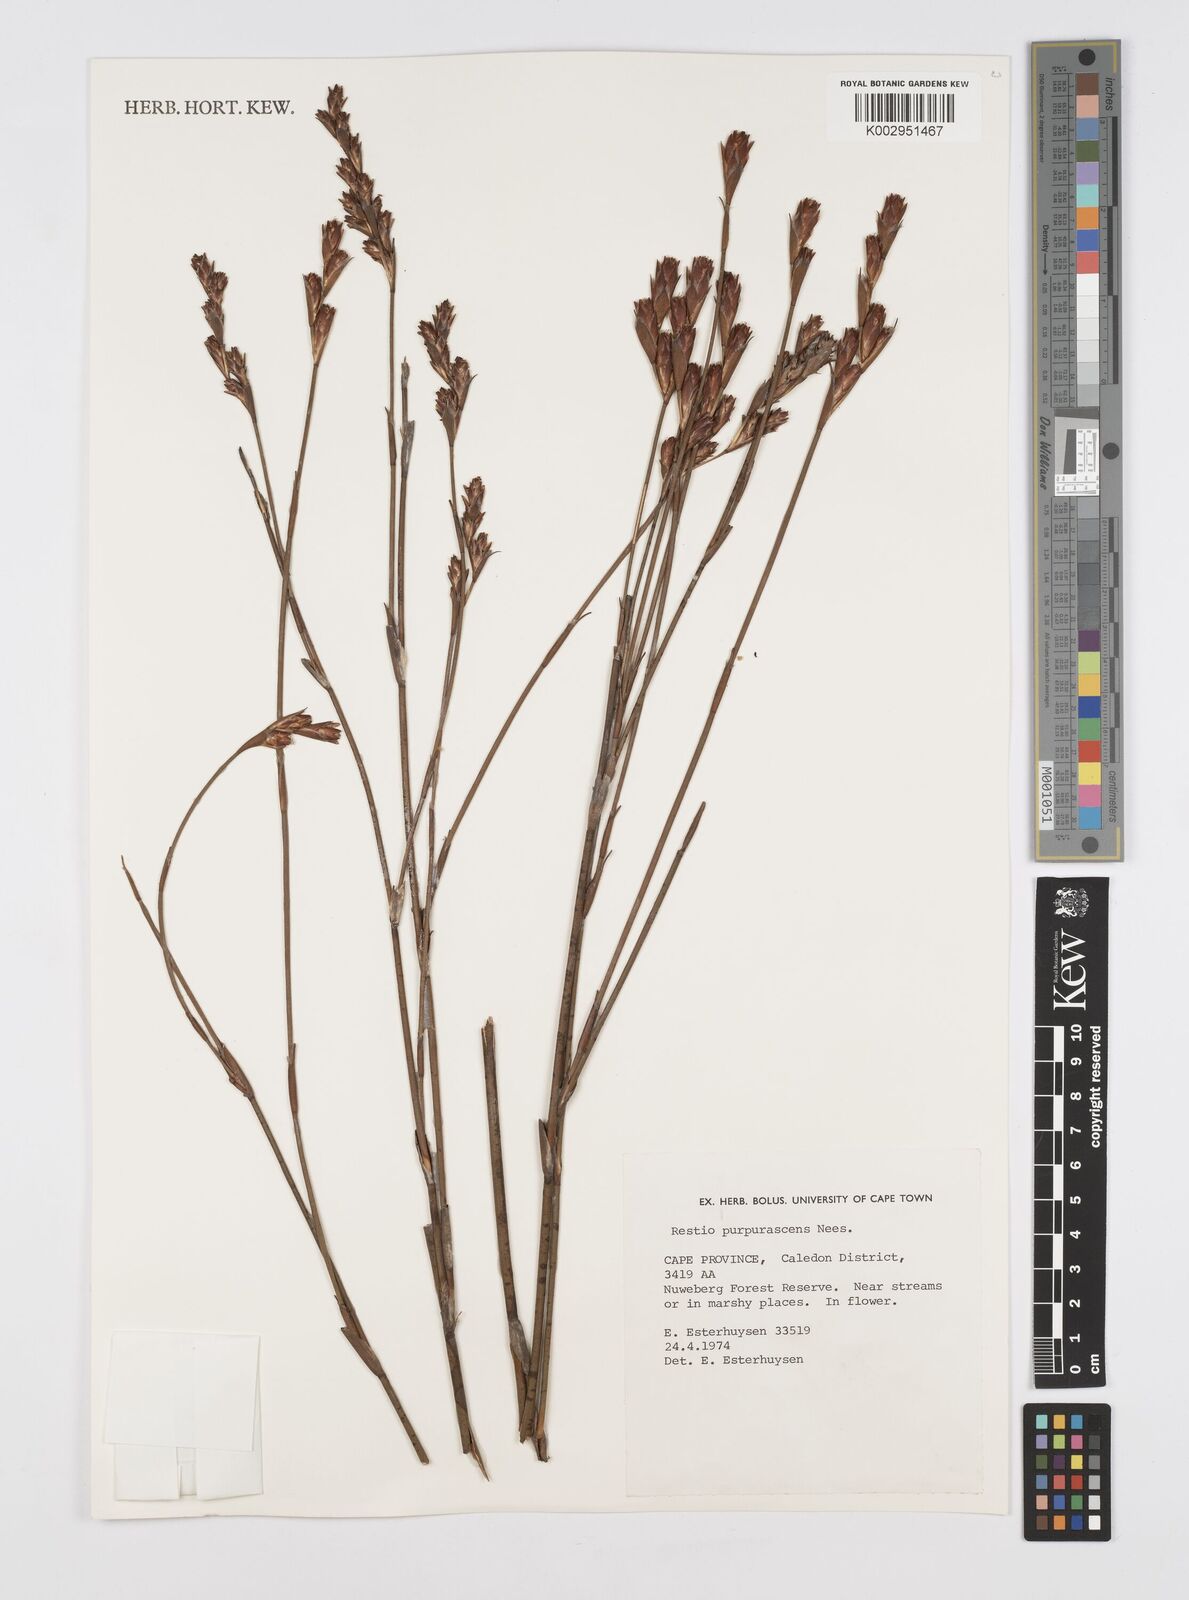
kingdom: Plantae
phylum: Tracheophyta
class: Liliopsida
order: Poales
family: Restionaceae
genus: Restio
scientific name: Restio purpurascens
